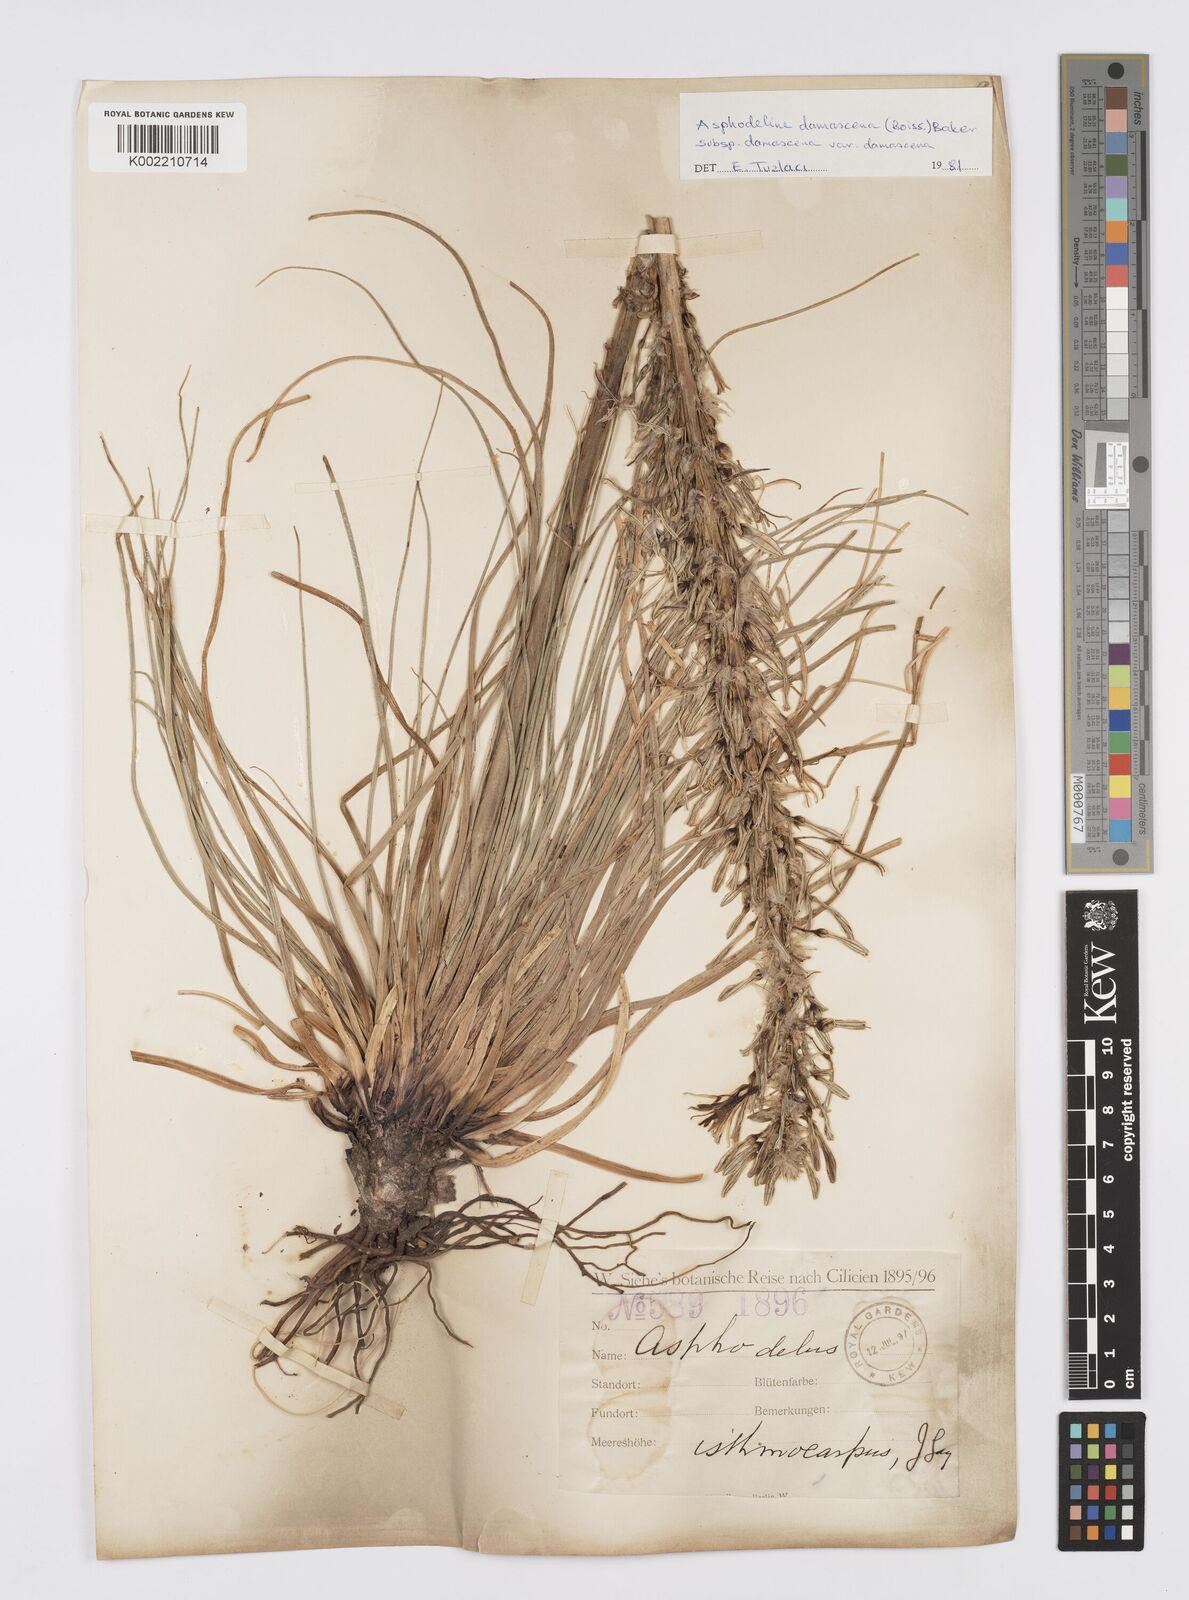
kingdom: Plantae
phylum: Tracheophyta
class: Liliopsida
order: Asparagales
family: Asphodelaceae
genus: Asphodeline
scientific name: Asphodeline damascena
